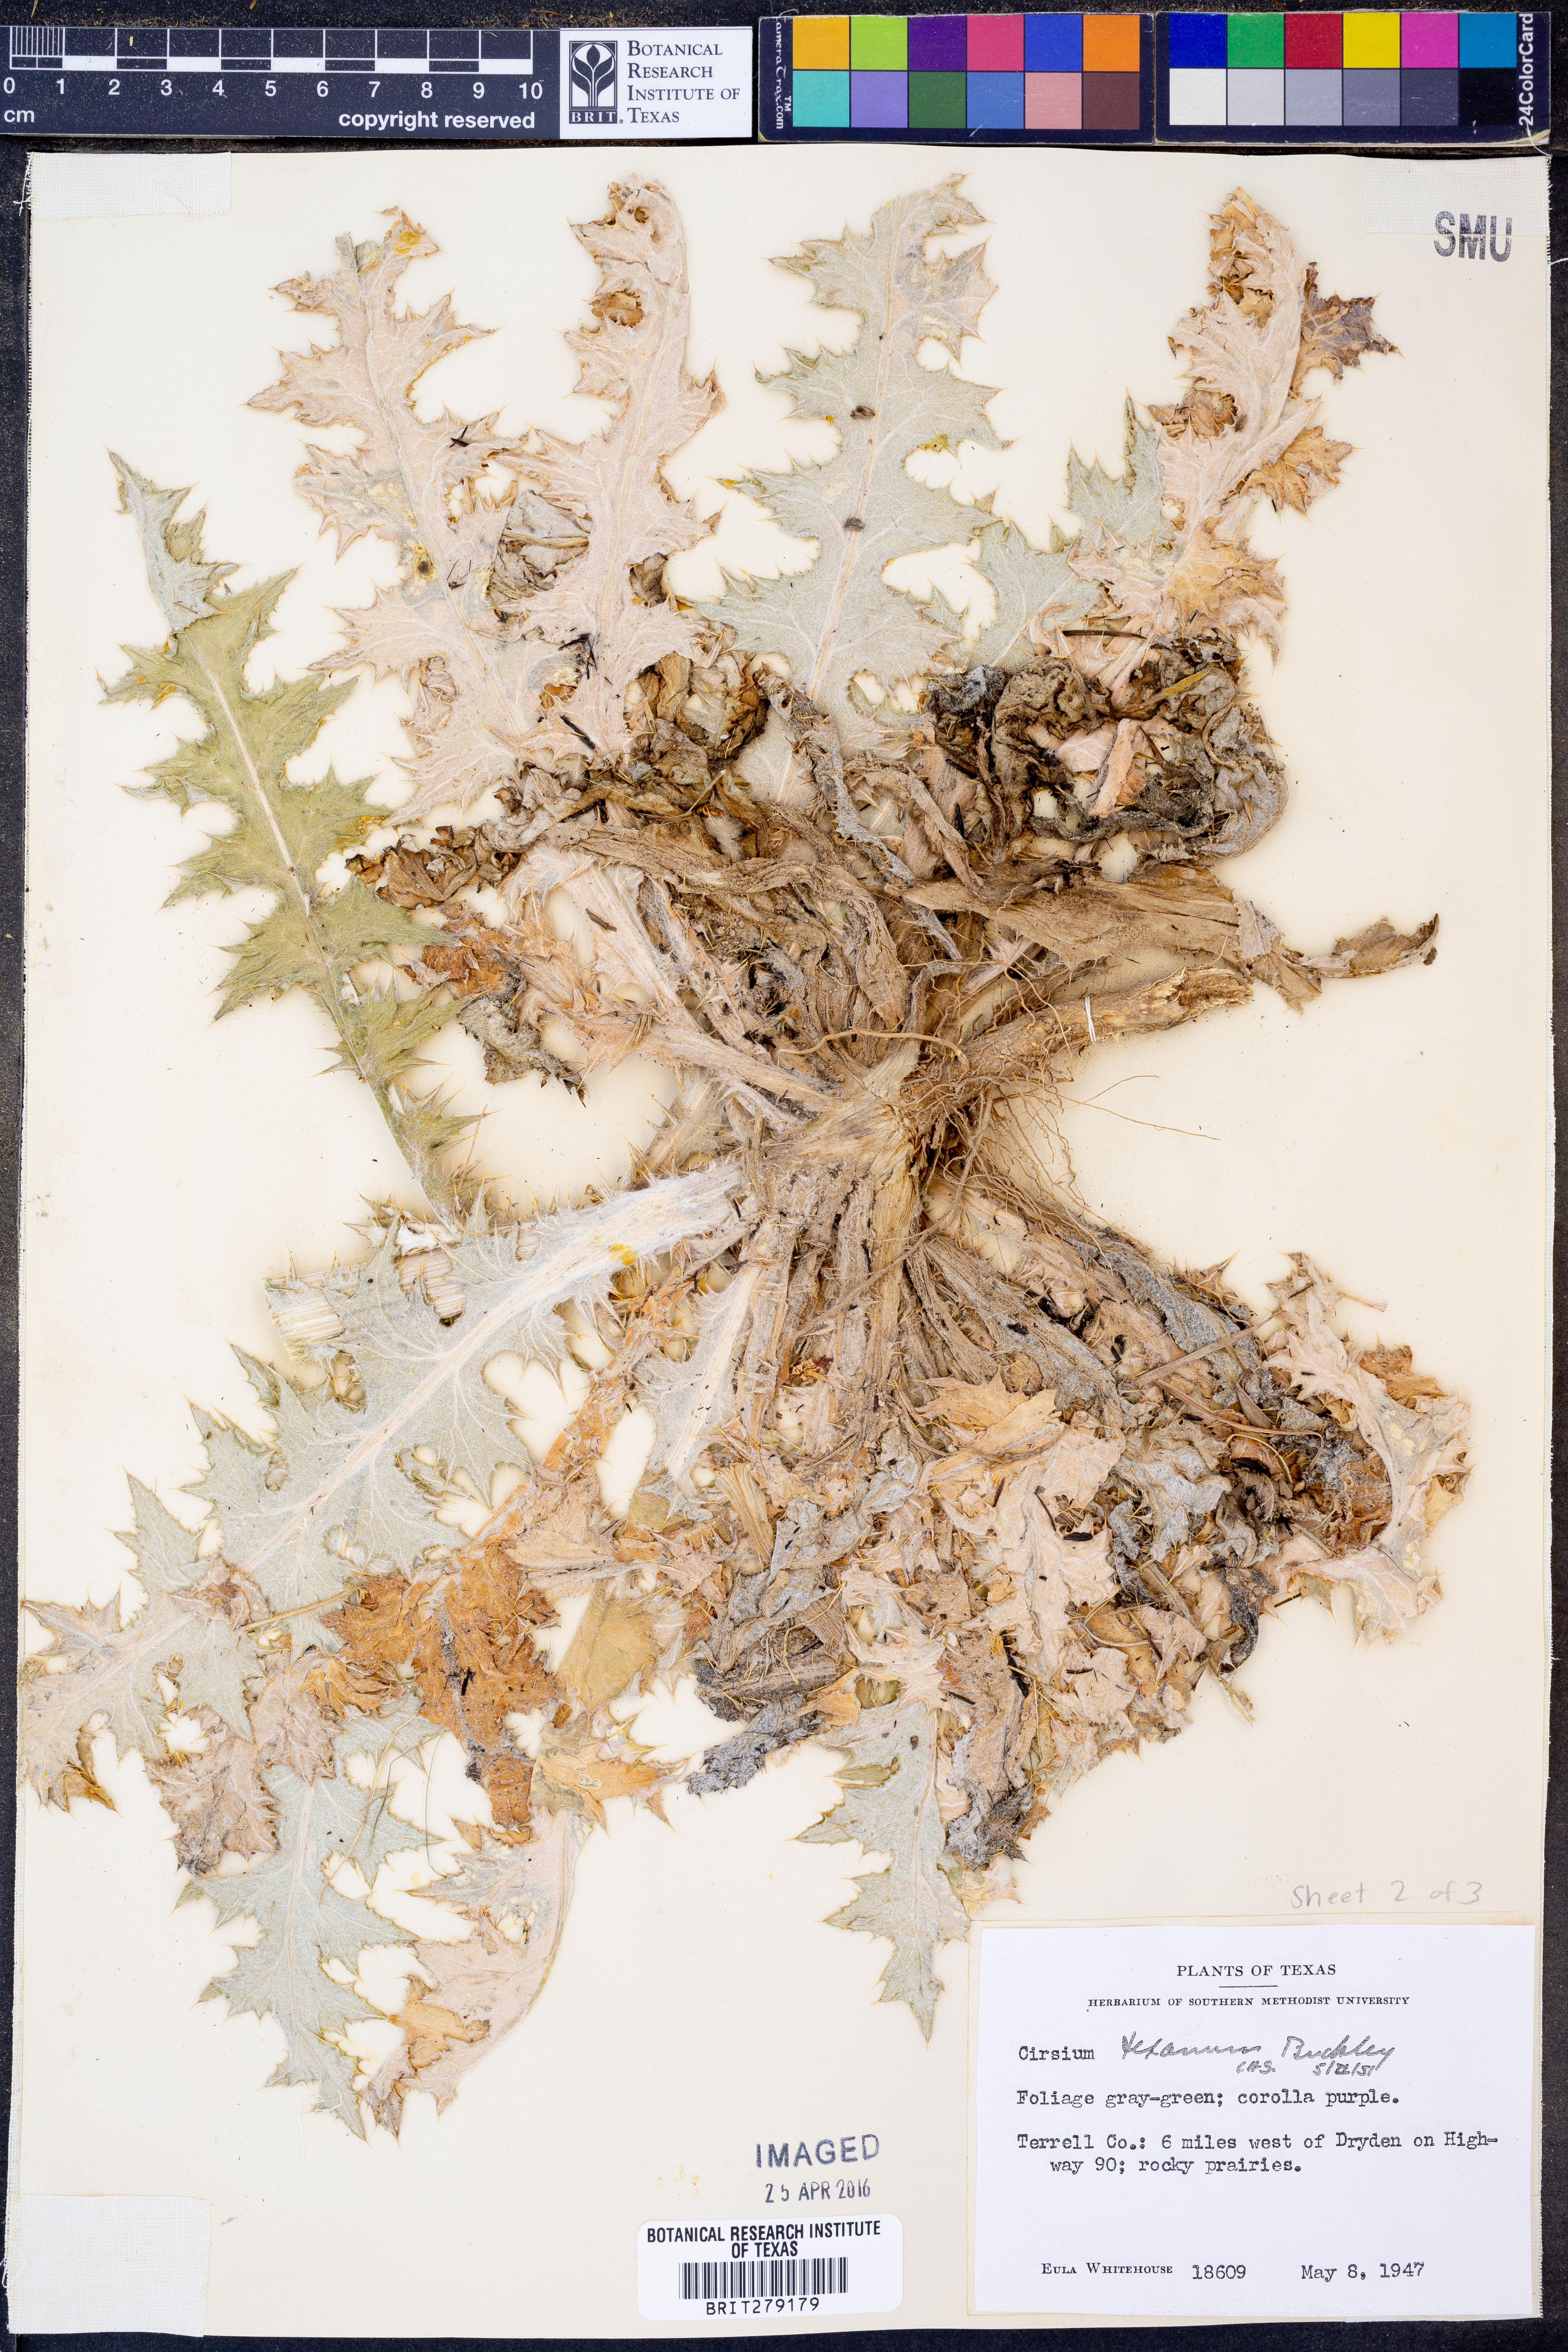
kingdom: Plantae
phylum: Tracheophyta
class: Magnoliopsida
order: Asterales
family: Asteraceae
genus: Cirsium
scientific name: Cirsium texanum
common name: Texas purple thistle
